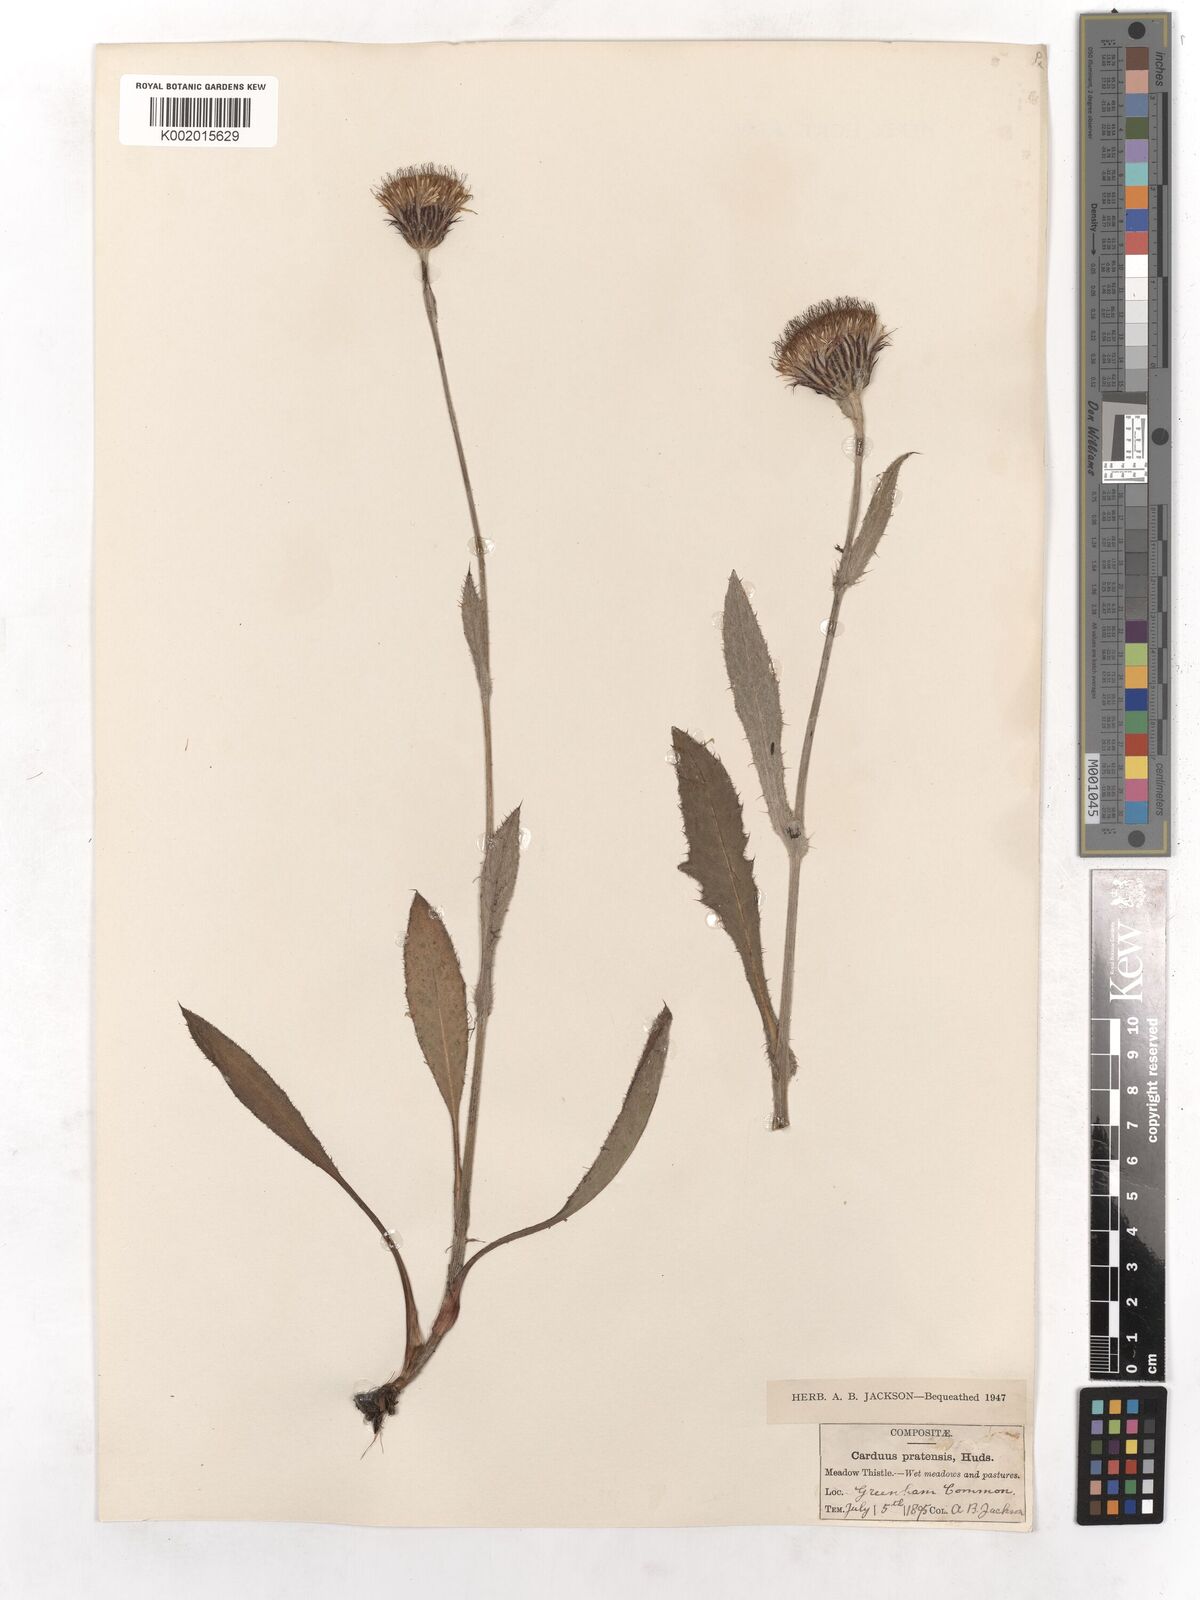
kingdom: Plantae
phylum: Tracheophyta
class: Magnoliopsida
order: Asterales
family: Asteraceae
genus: Cirsium
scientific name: Cirsium dissectum
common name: Meadow thistle
